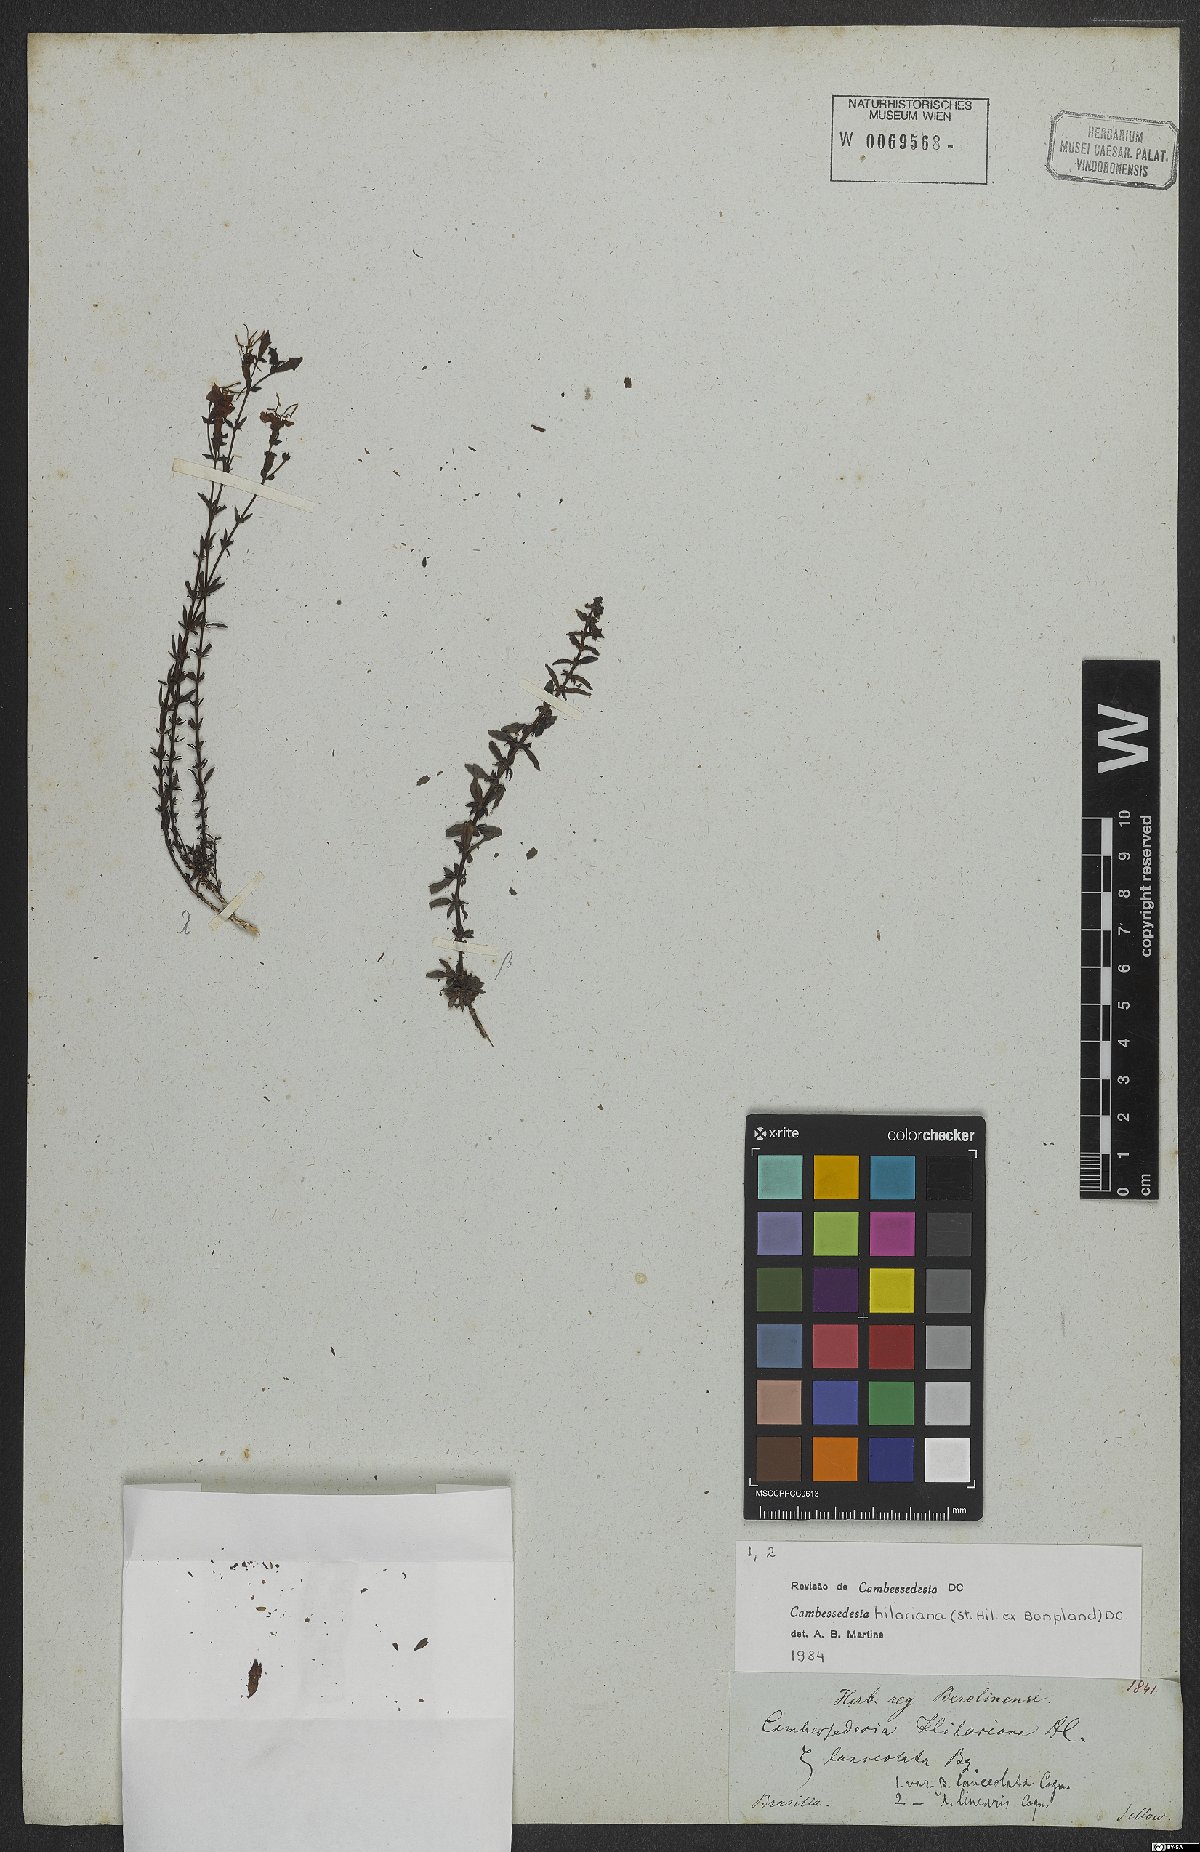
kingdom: Plantae
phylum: Tracheophyta
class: Magnoliopsida
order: Myrtales
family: Melastomataceae
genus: Cambessedesia
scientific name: Cambessedesia hilariana
